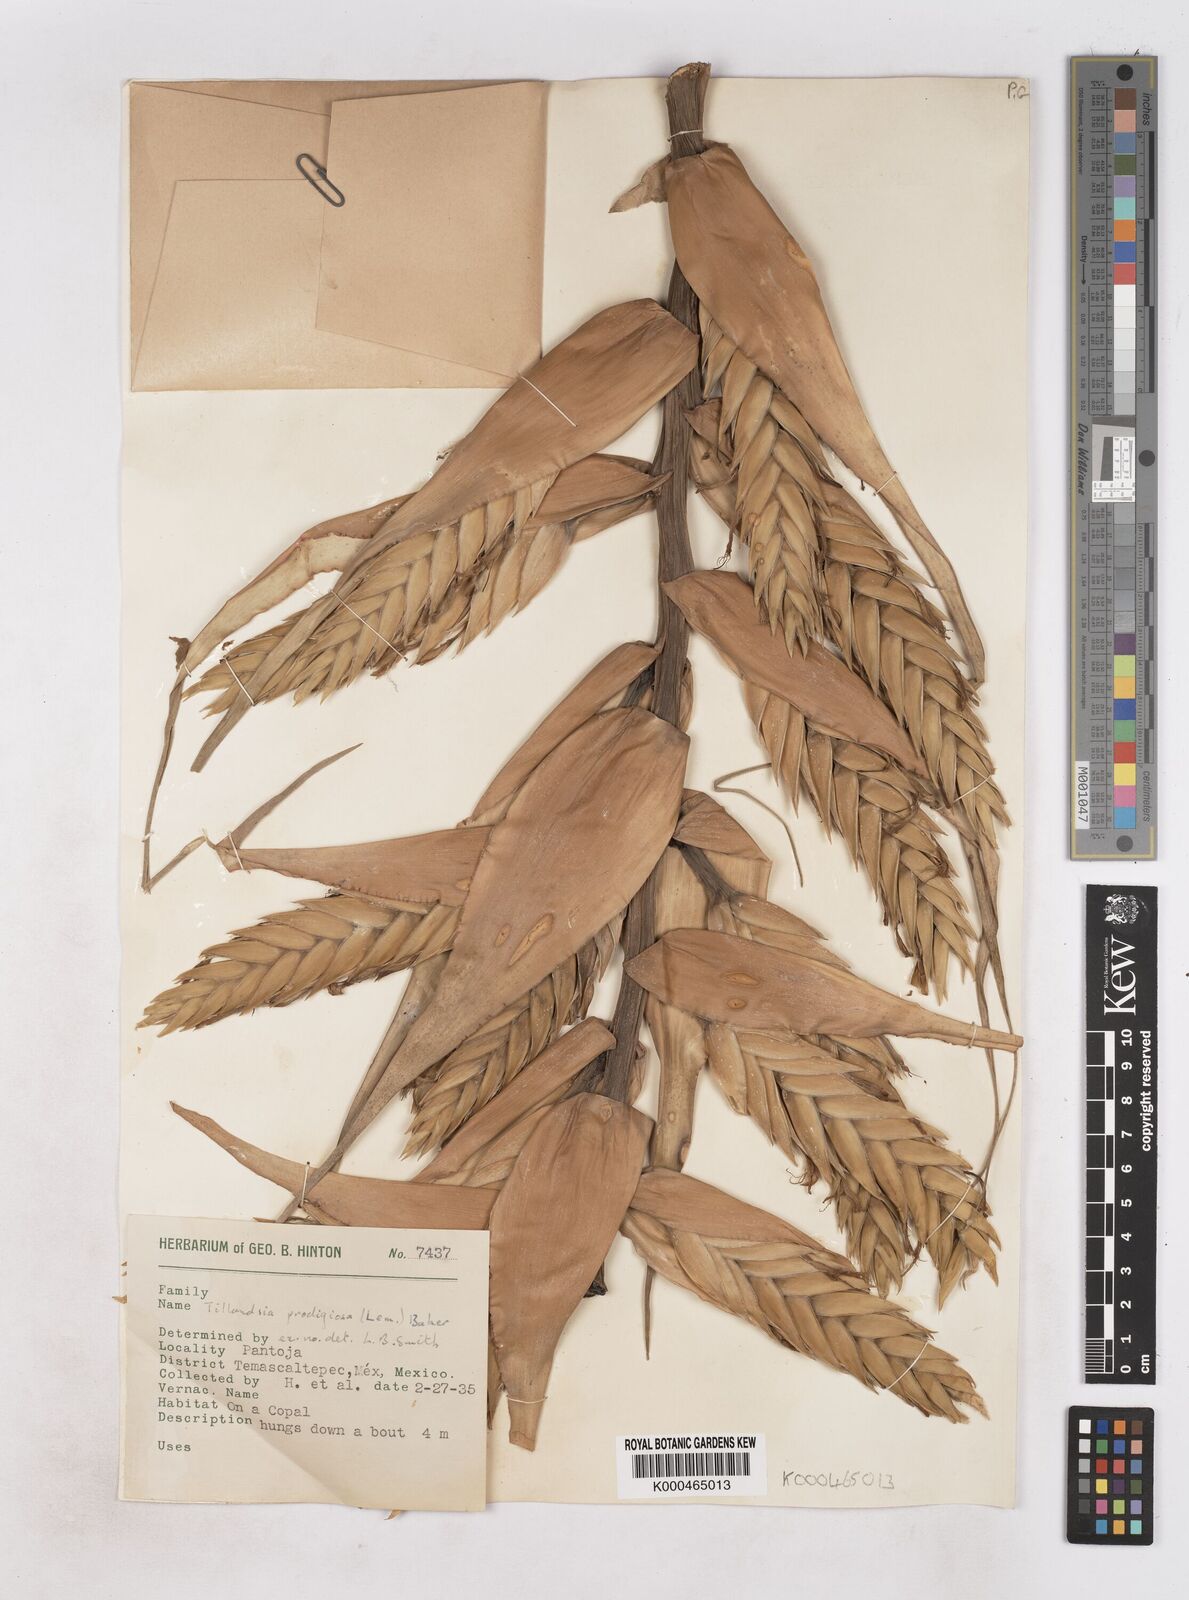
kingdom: Plantae
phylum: Tracheophyta
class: Liliopsida
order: Poales
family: Bromeliaceae
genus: Tillandsia
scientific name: Tillandsia prodigiosa
